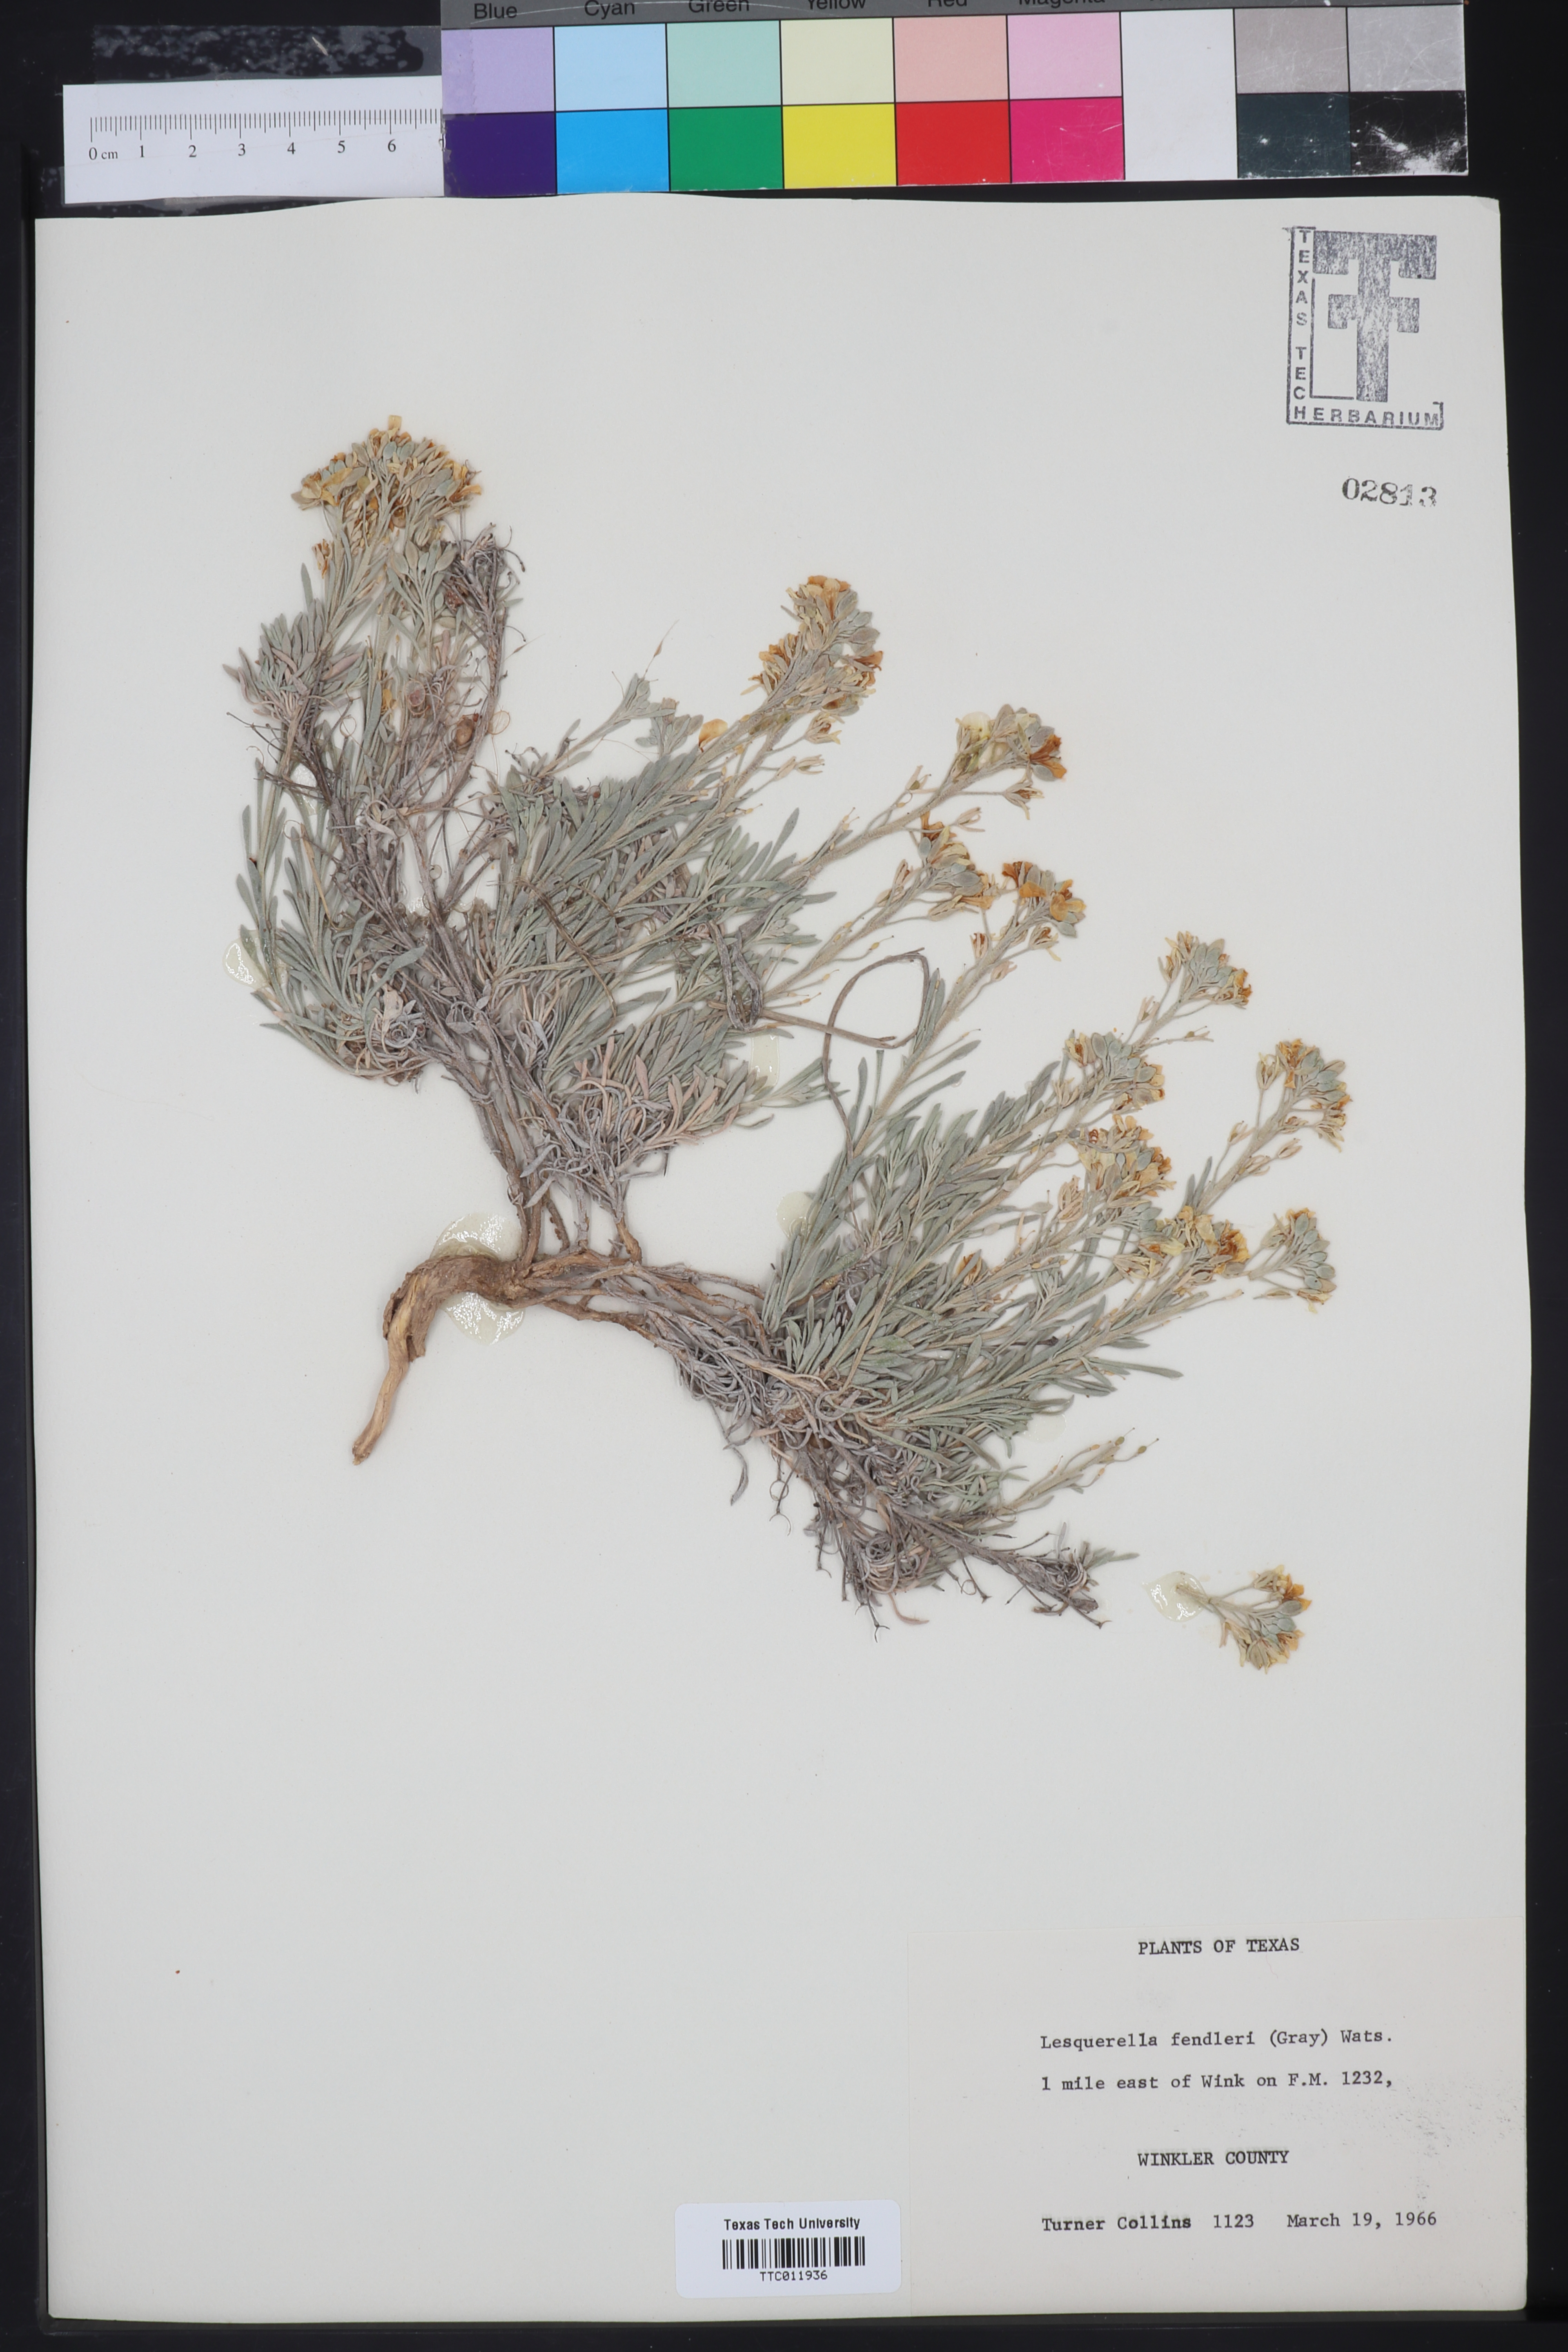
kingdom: Plantae
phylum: Tracheophyta
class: Magnoliopsida
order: Brassicales
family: Brassicaceae
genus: Physaria
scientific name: Physaria fendleri
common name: Fendler's bladderpod
